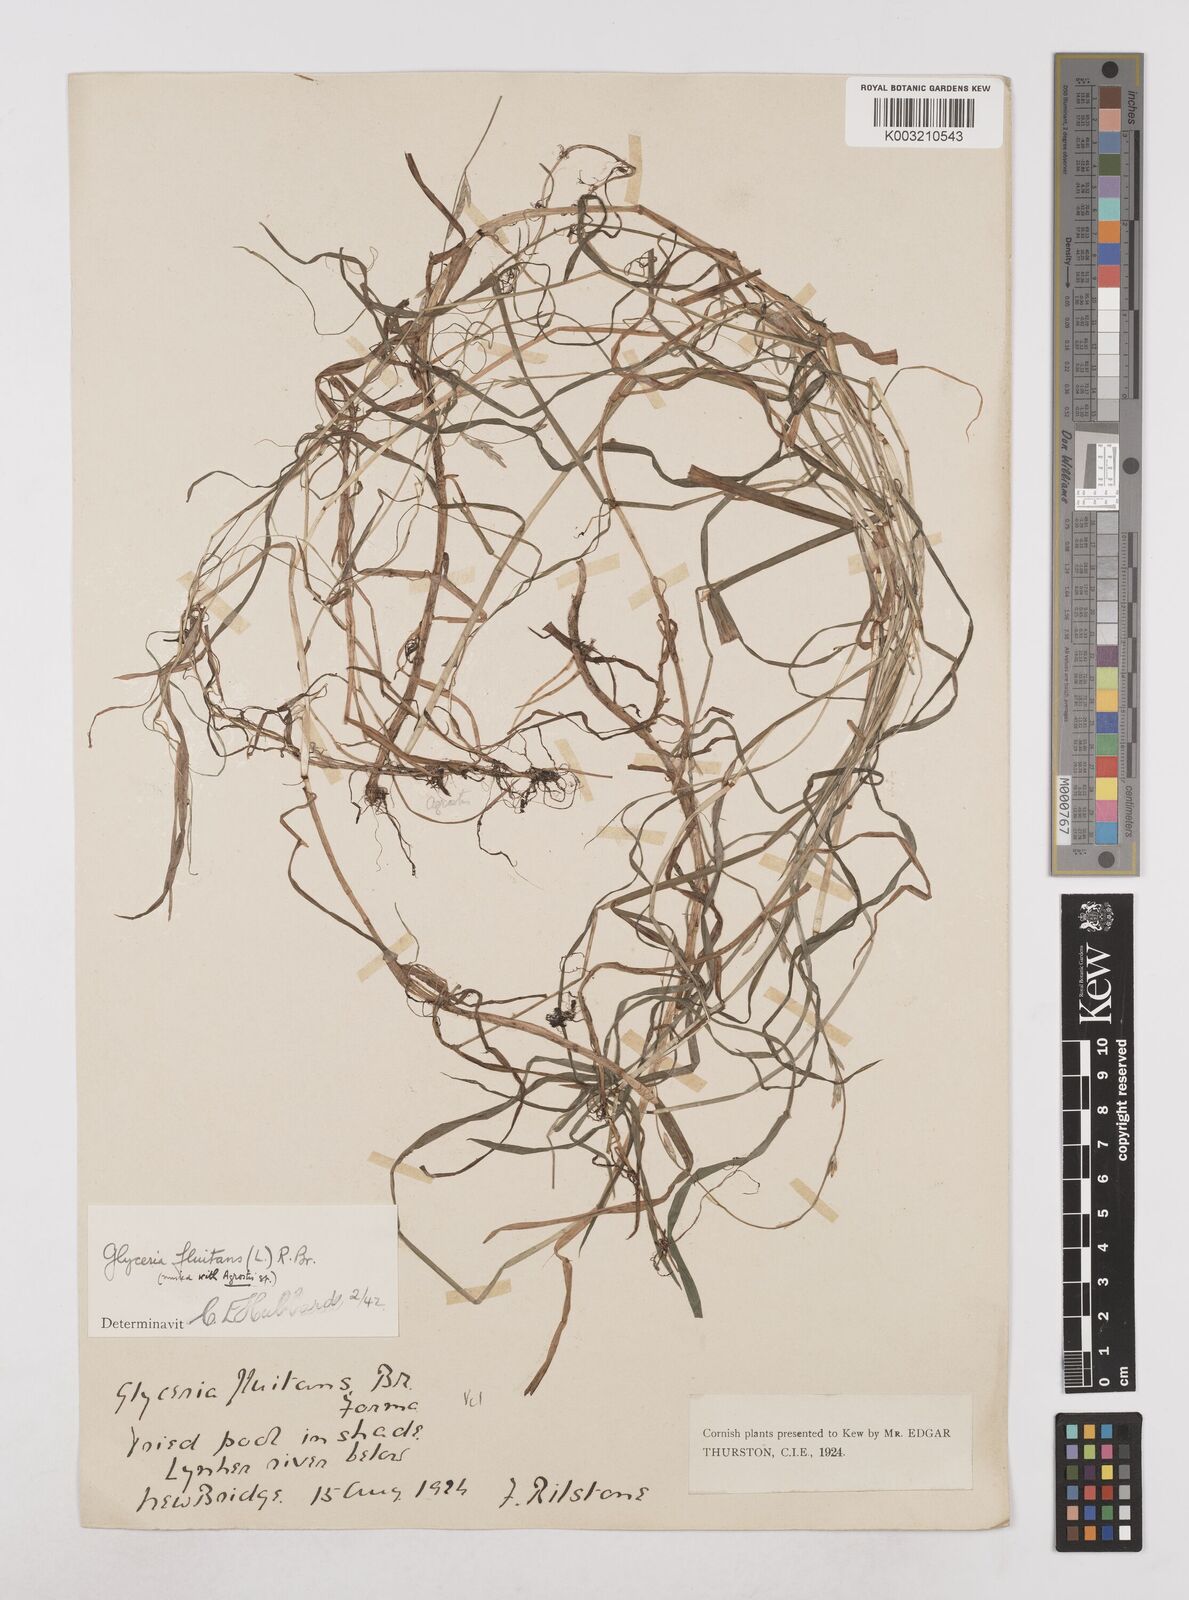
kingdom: Plantae
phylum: Tracheophyta
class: Liliopsida
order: Poales
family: Poaceae
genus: Glyceria
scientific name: Glyceria fluitans
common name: Floating sweet-grass
